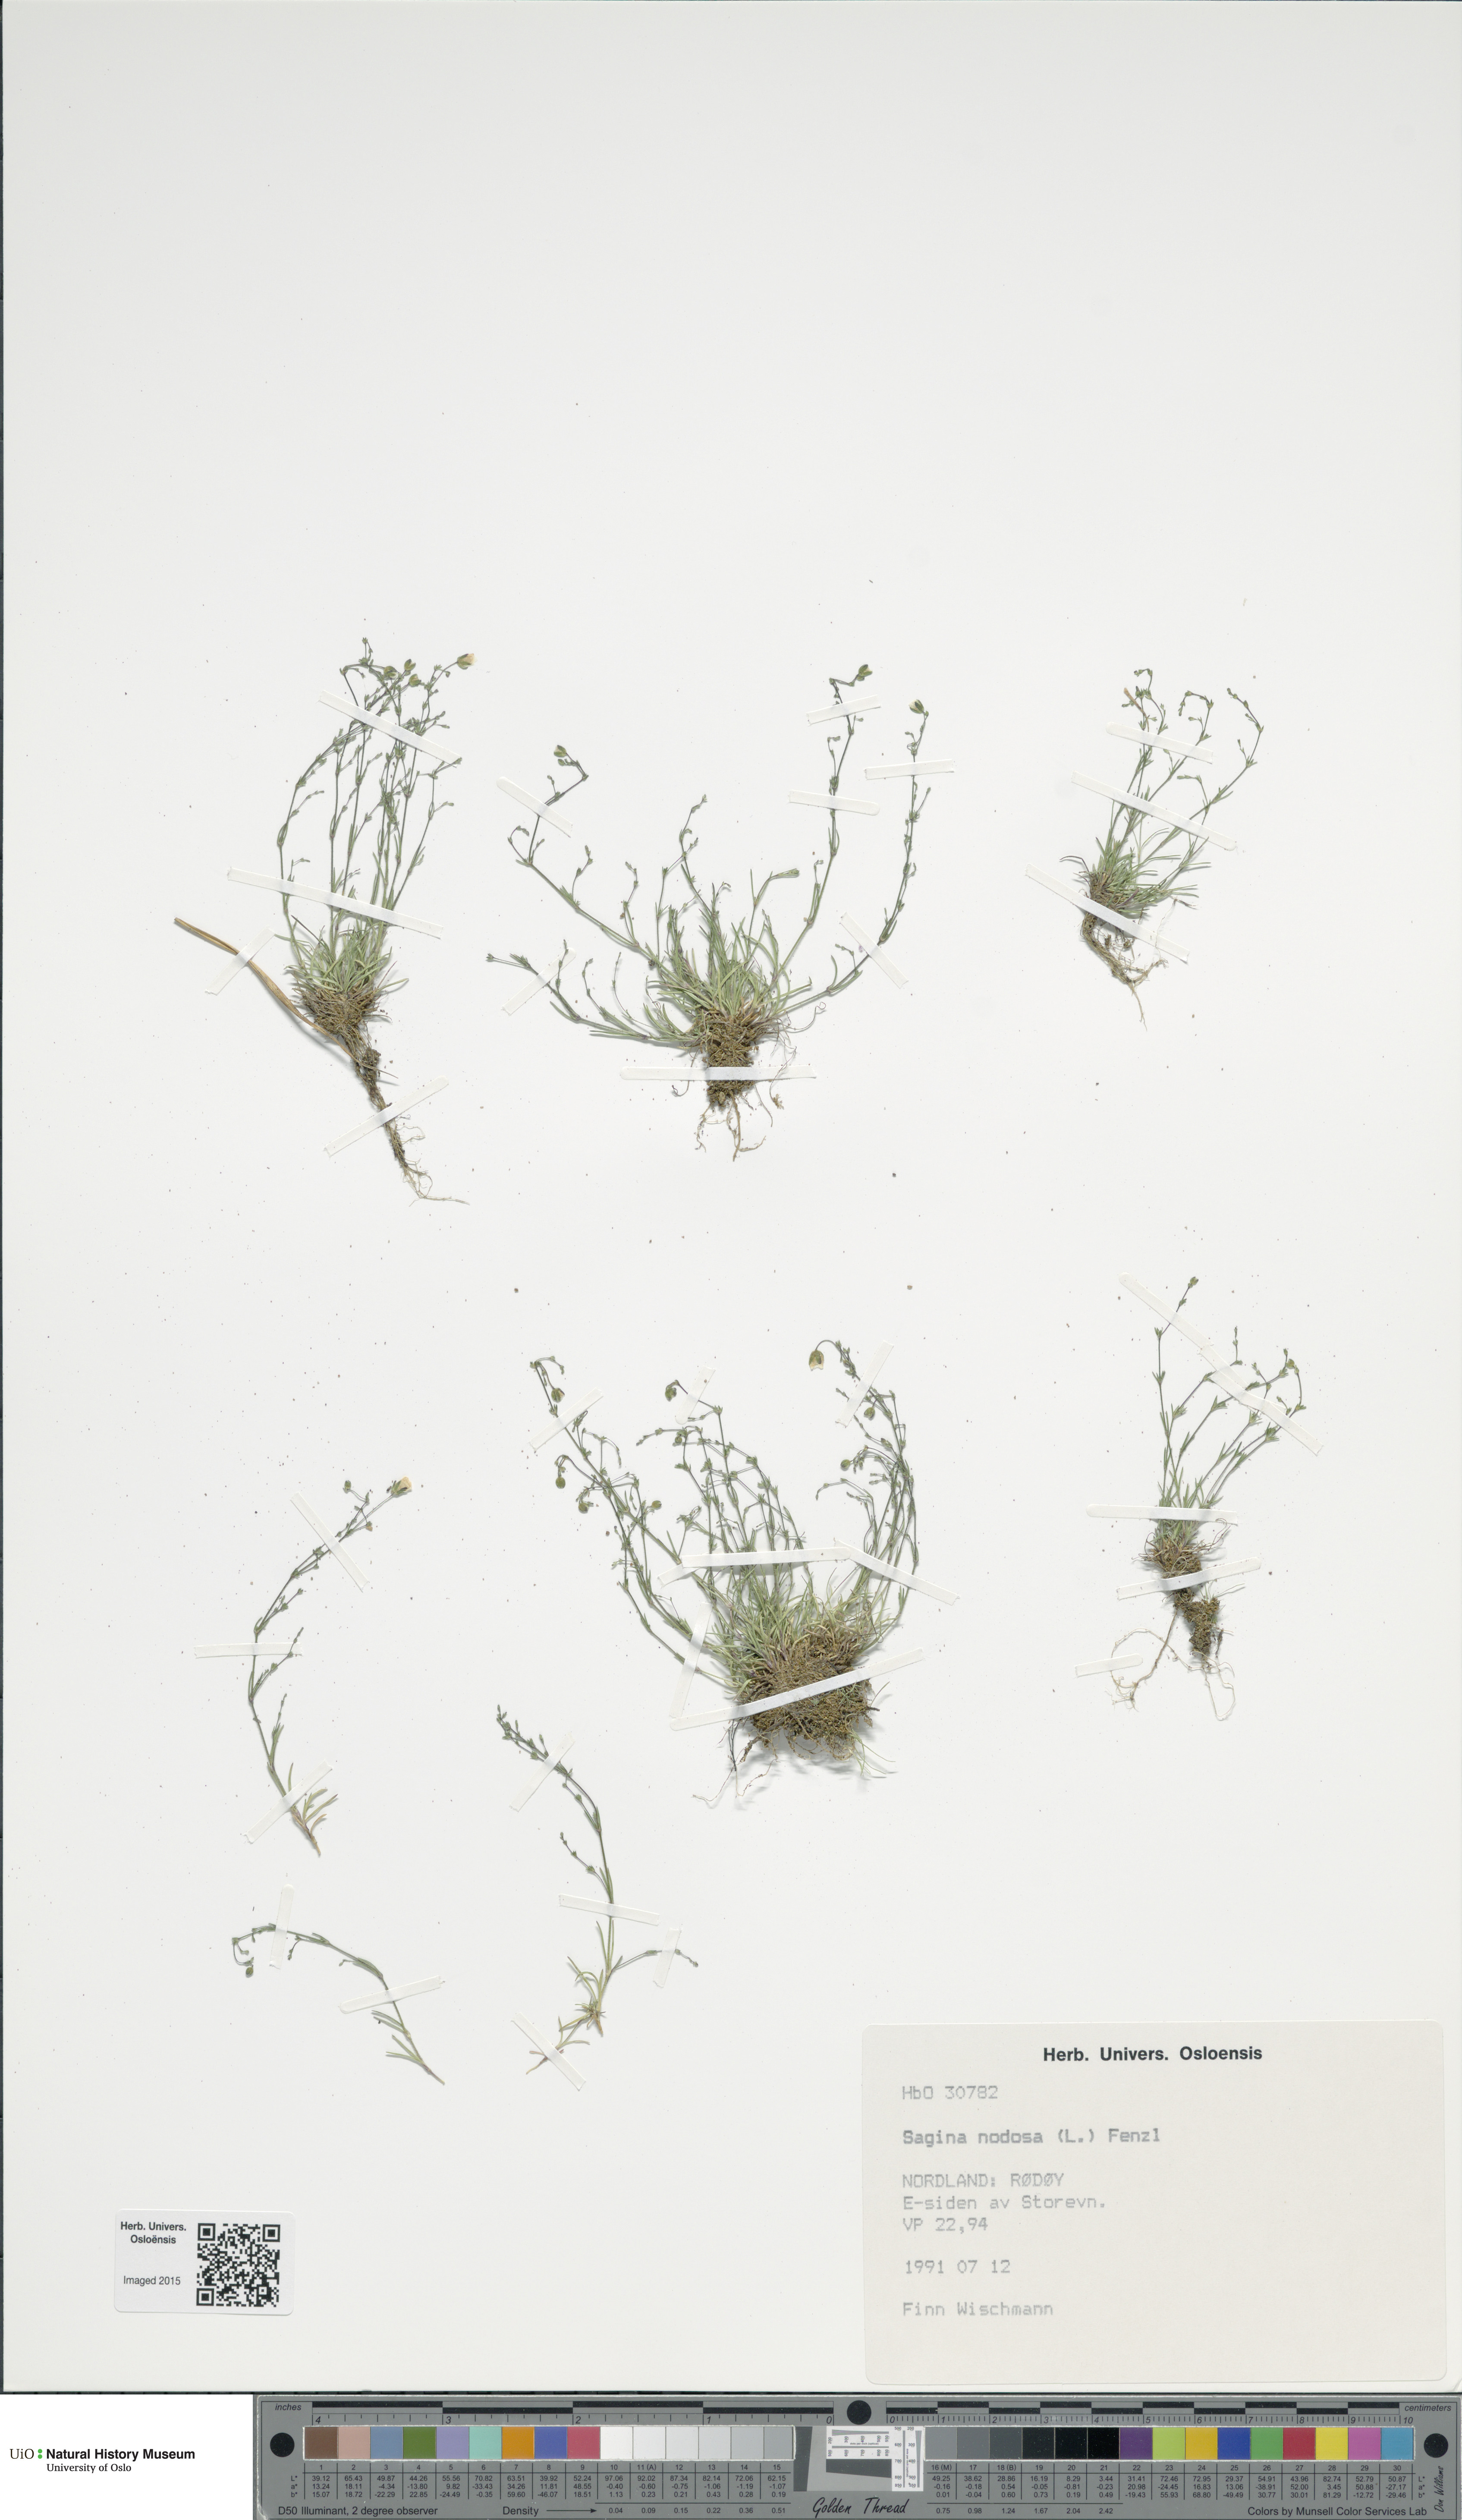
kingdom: Plantae
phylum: Tracheophyta
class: Magnoliopsida
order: Caryophyllales
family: Caryophyllaceae
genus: Sagina
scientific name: Sagina nodosa
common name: Knotted pearlwort
